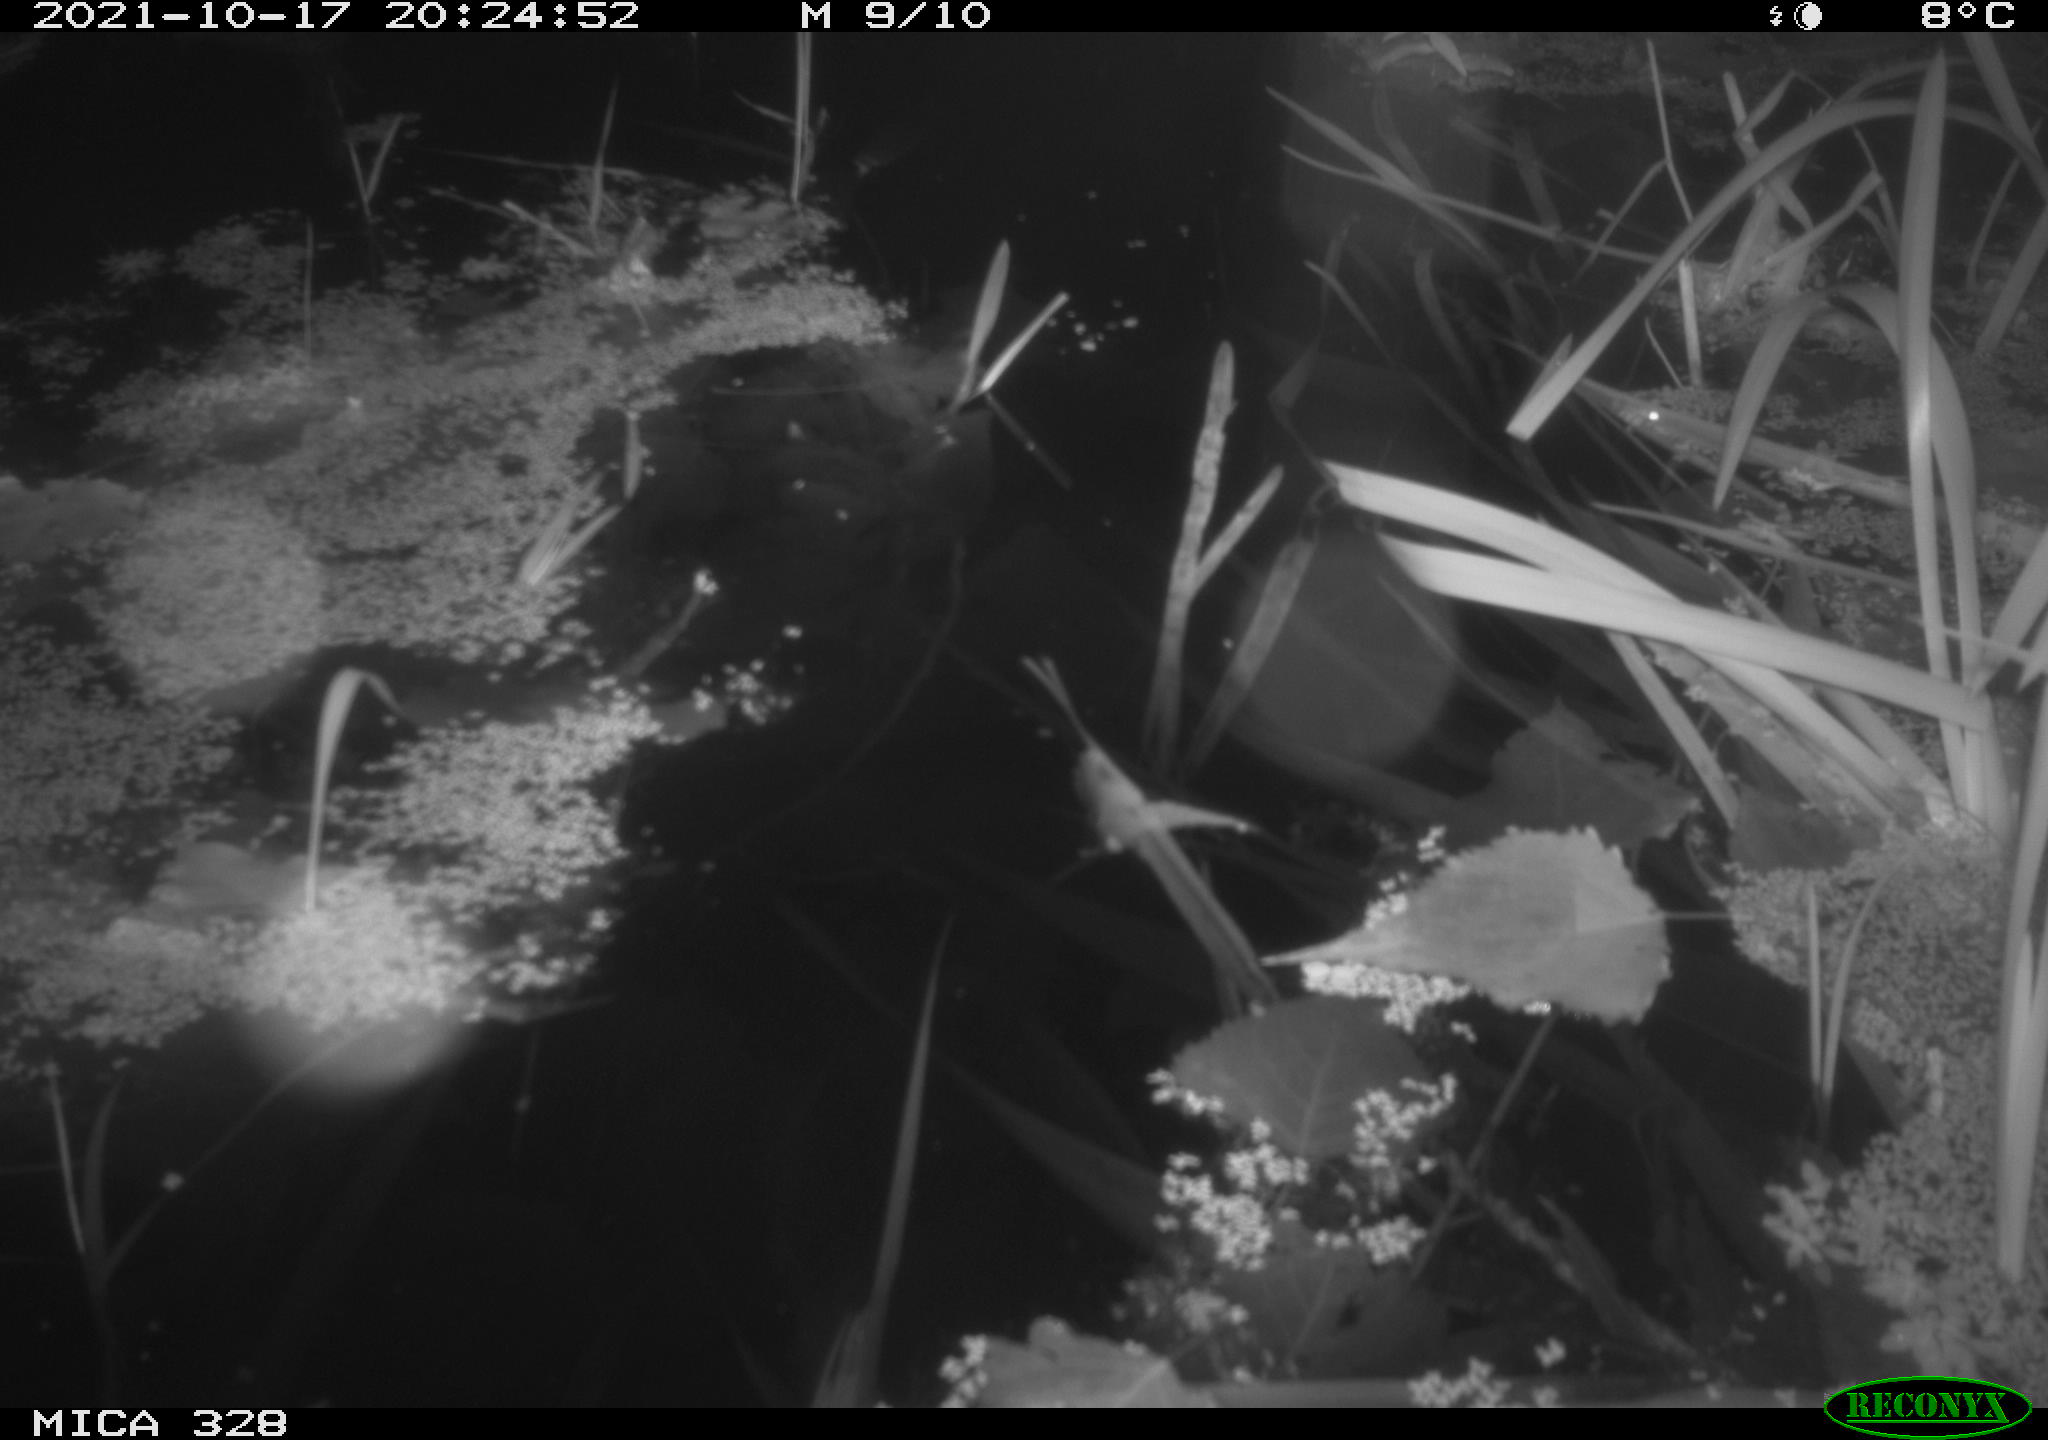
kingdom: Animalia
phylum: Chordata
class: Mammalia
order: Rodentia
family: Cricetidae
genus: Ondatra
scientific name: Ondatra zibethicus
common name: Muskrat
